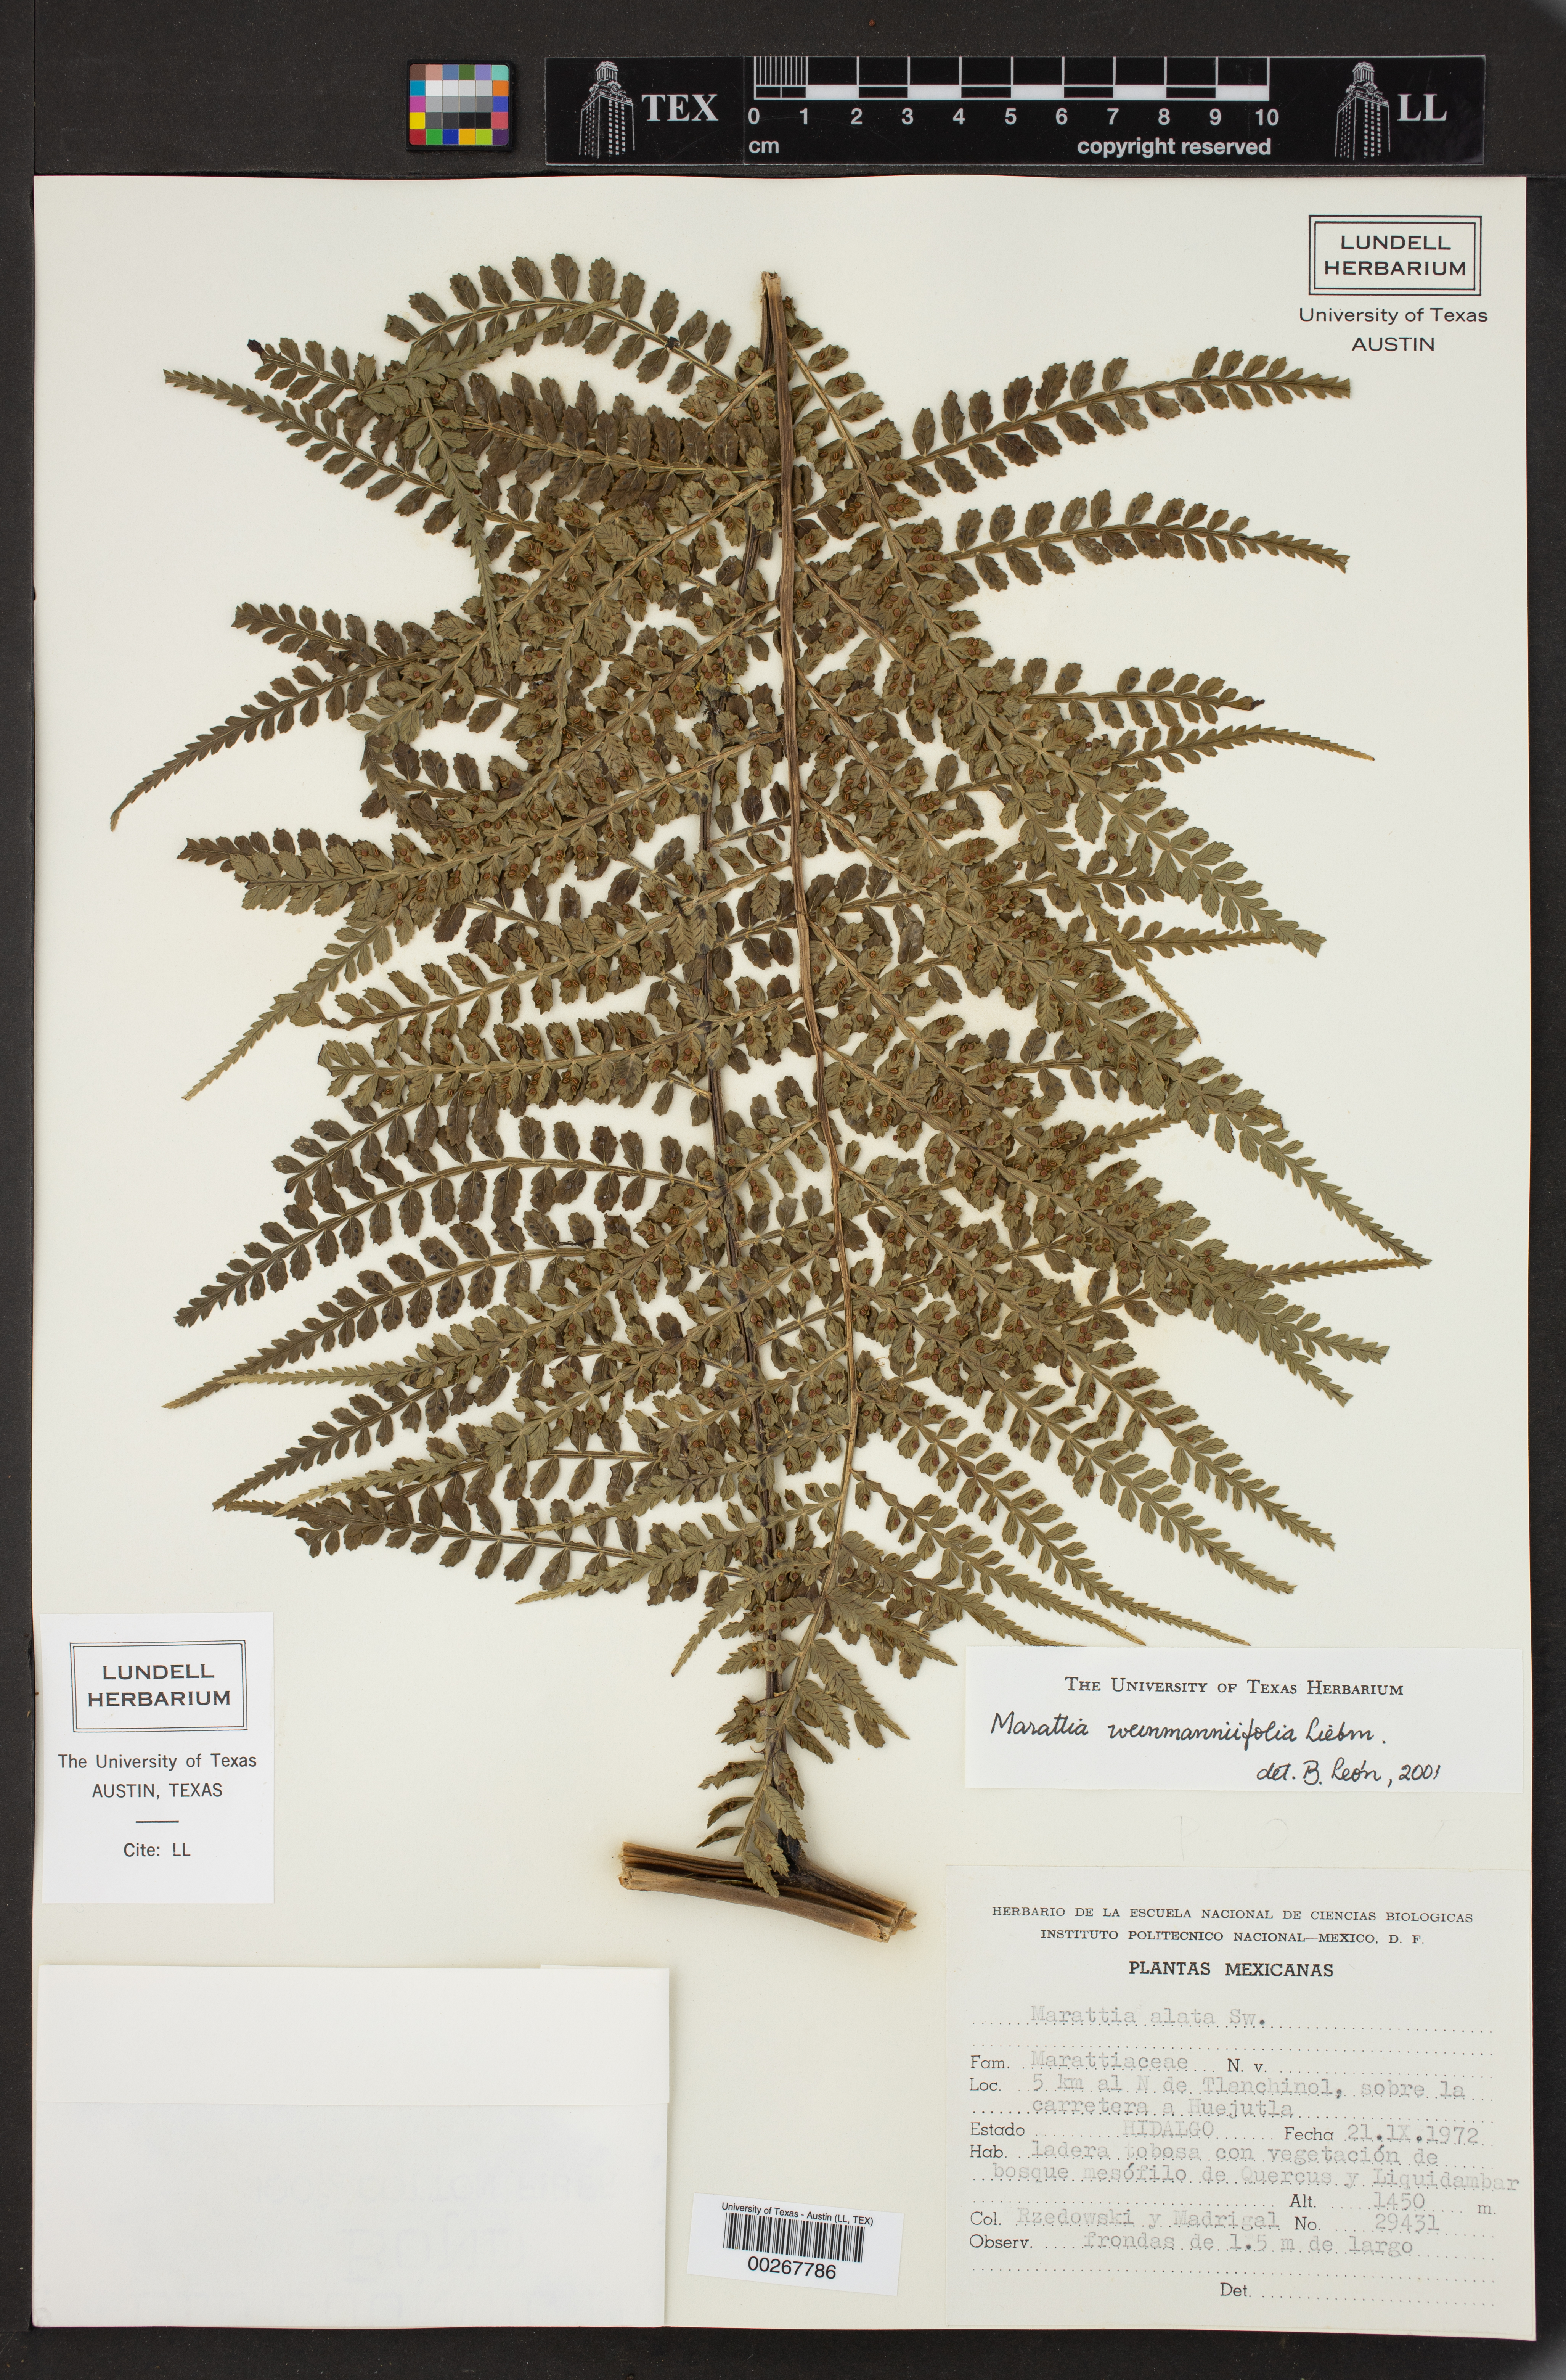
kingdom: Plantae
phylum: Tracheophyta
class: Polypodiopsida
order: Marattiales
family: Marattiaceae
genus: Marattia
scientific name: Marattia weinmanniifolia
